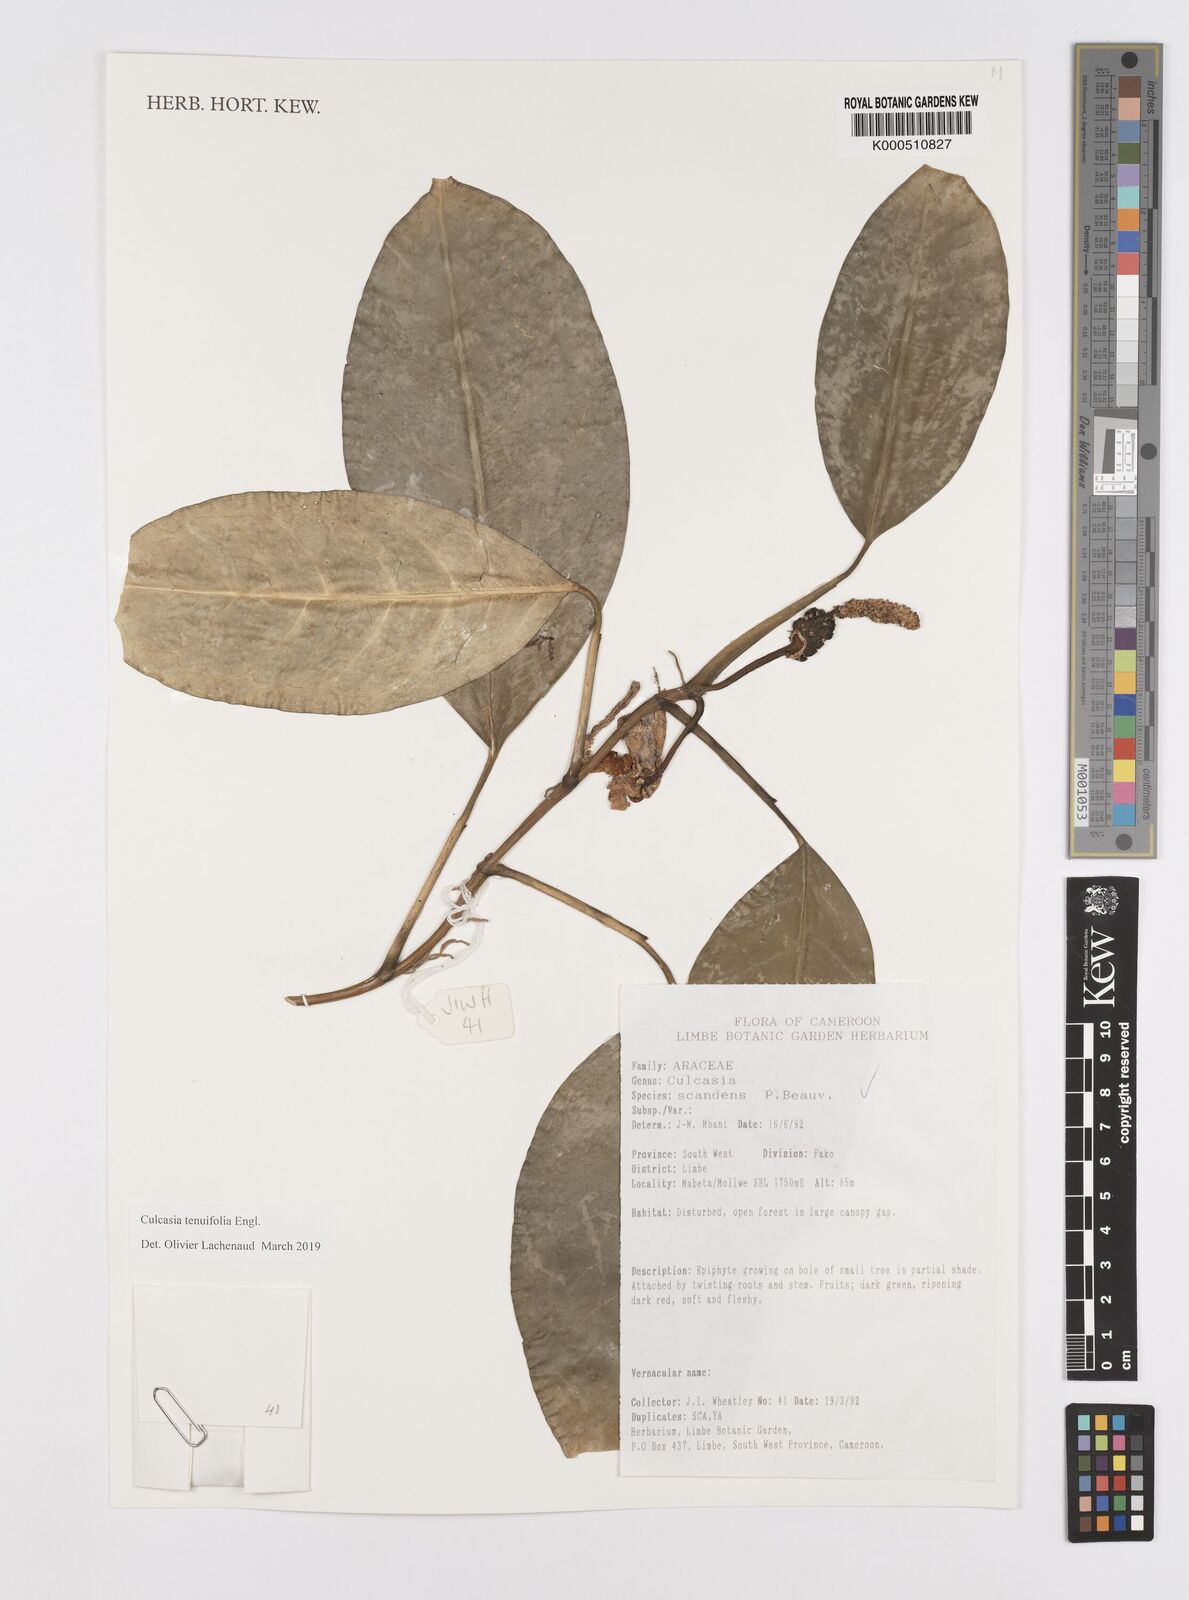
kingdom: Plantae
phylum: Tracheophyta
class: Liliopsida
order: Alismatales
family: Araceae
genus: Culcasia
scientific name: Culcasia tenuifolia
